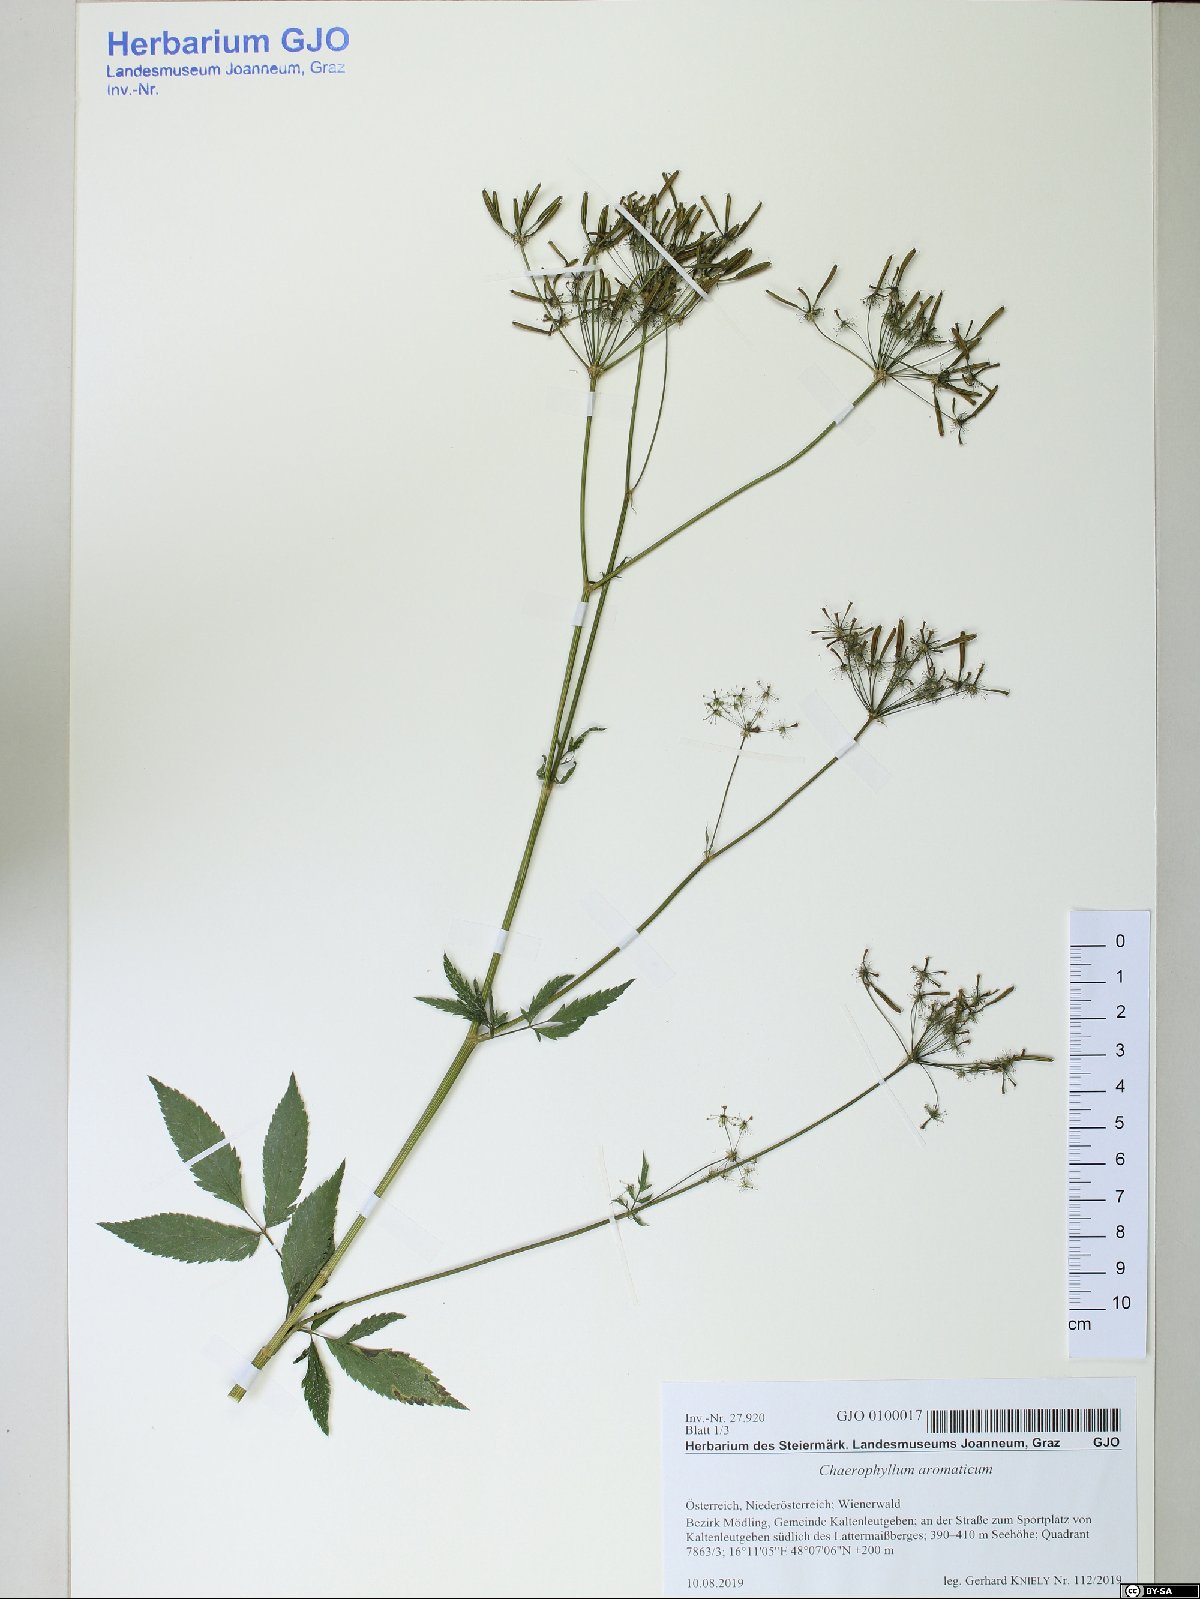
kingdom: Plantae
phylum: Tracheophyta
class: Magnoliopsida
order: Apiales
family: Apiaceae
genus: Chaerophyllum
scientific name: Chaerophyllum aromaticum
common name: Broadleaf chervil
